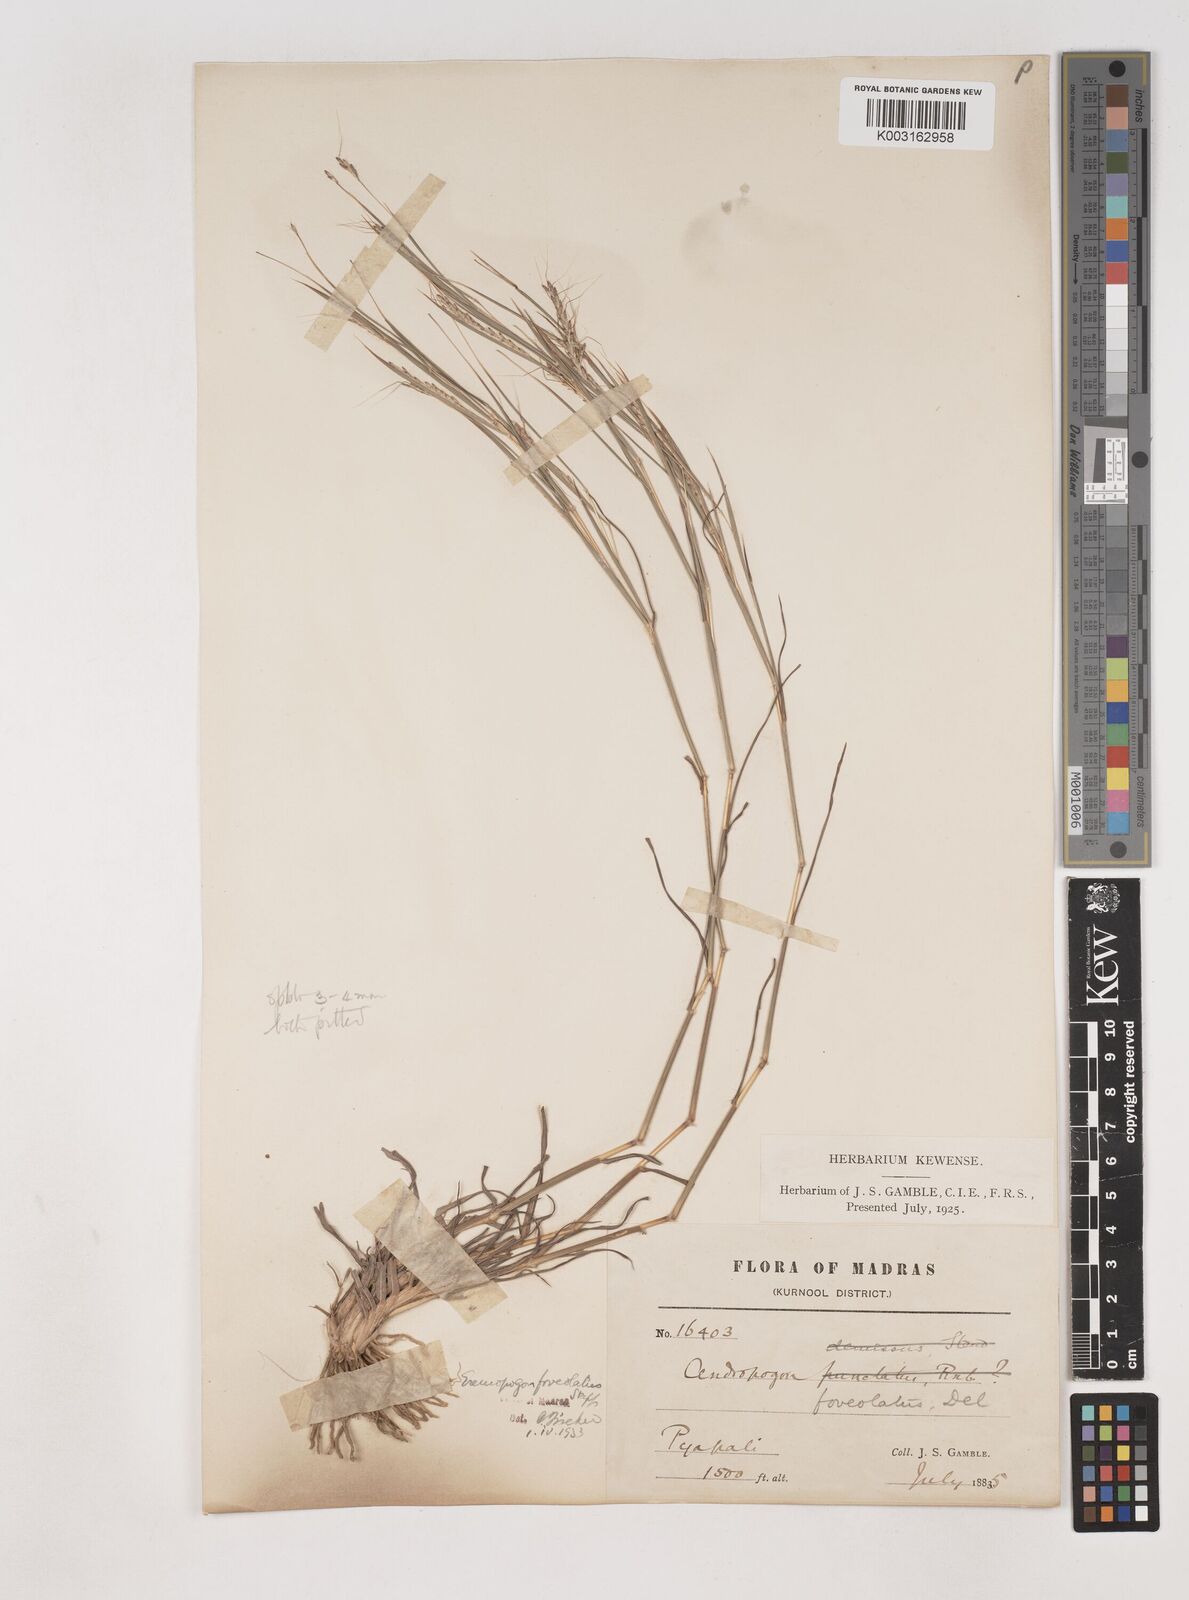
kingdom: Plantae
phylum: Tracheophyta
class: Liliopsida
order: Poales
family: Poaceae
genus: Dichanthium
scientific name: Dichanthium
